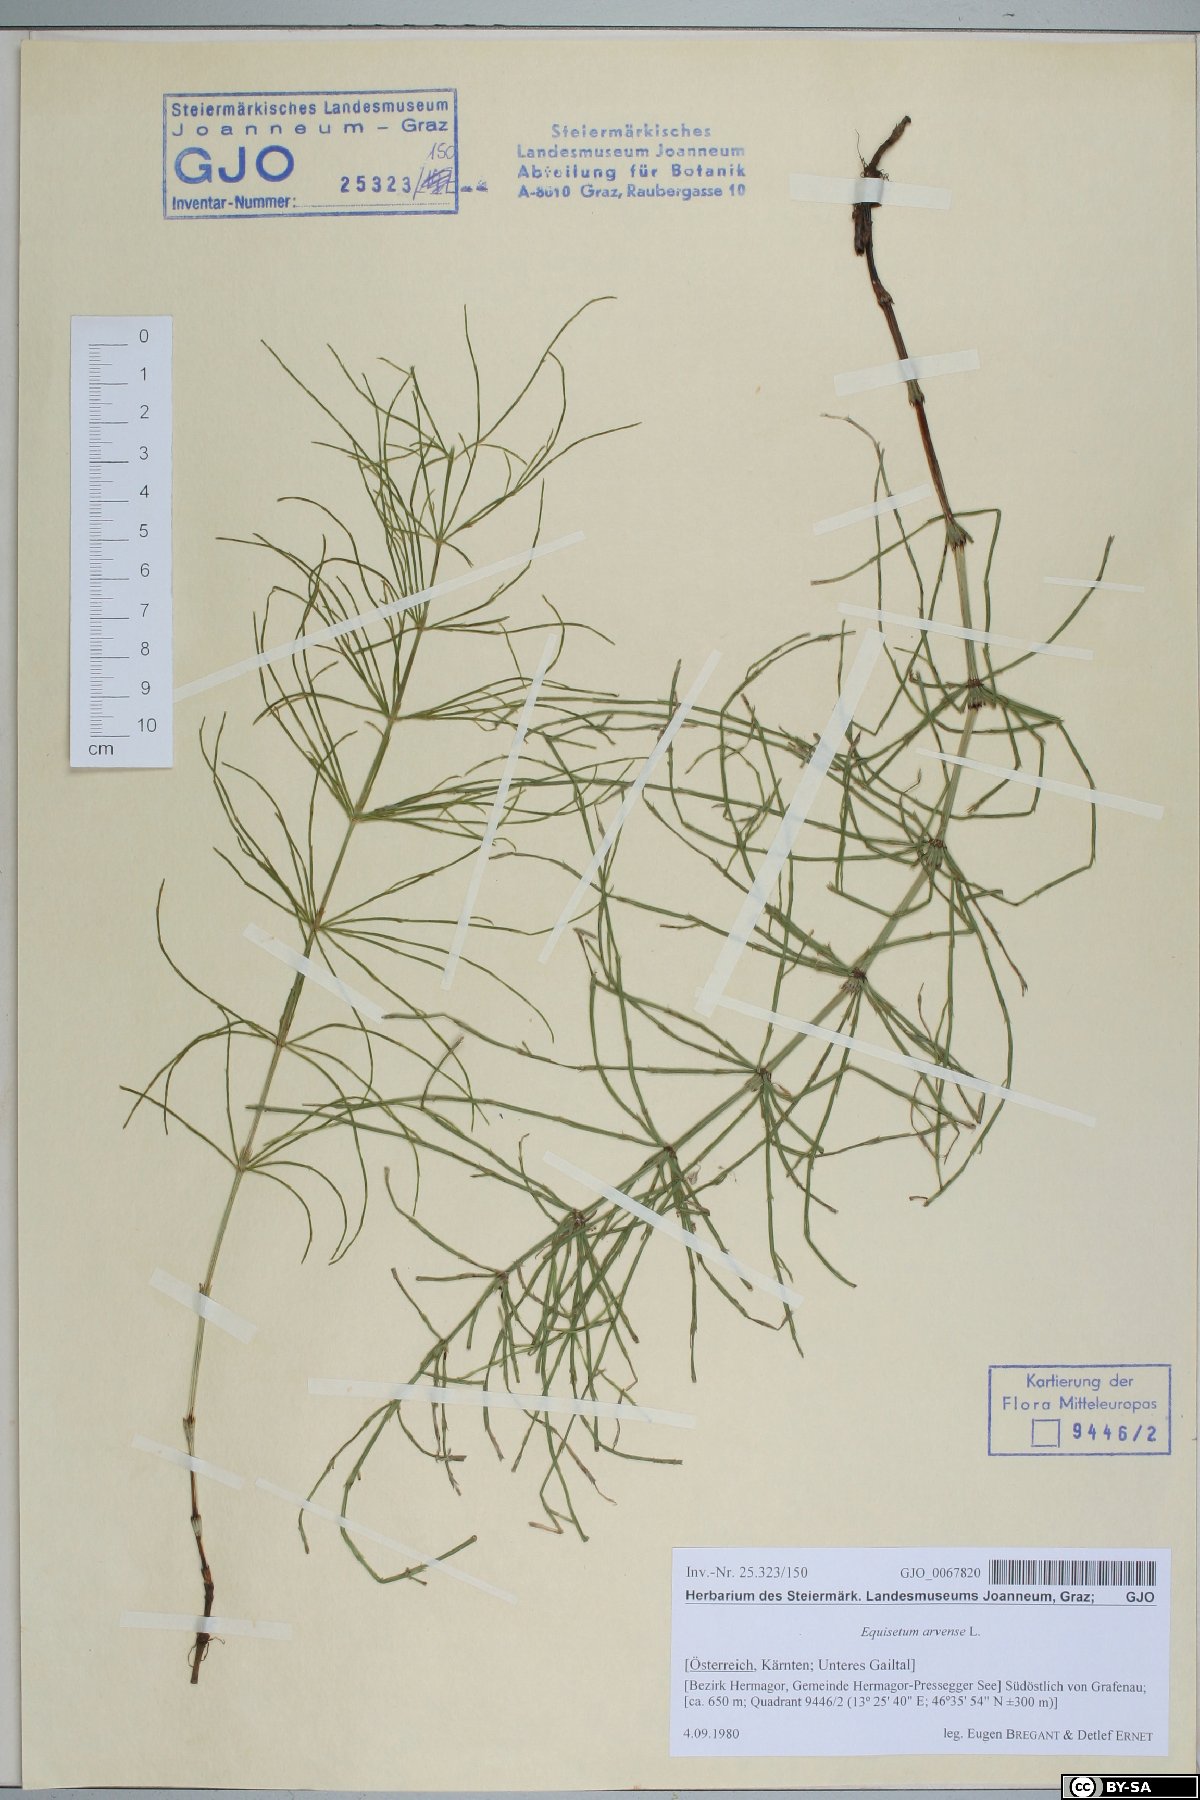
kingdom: Plantae
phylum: Tracheophyta
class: Polypodiopsida
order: Equisetales
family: Equisetaceae
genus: Equisetum
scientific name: Equisetum arvense
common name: Field horsetail
